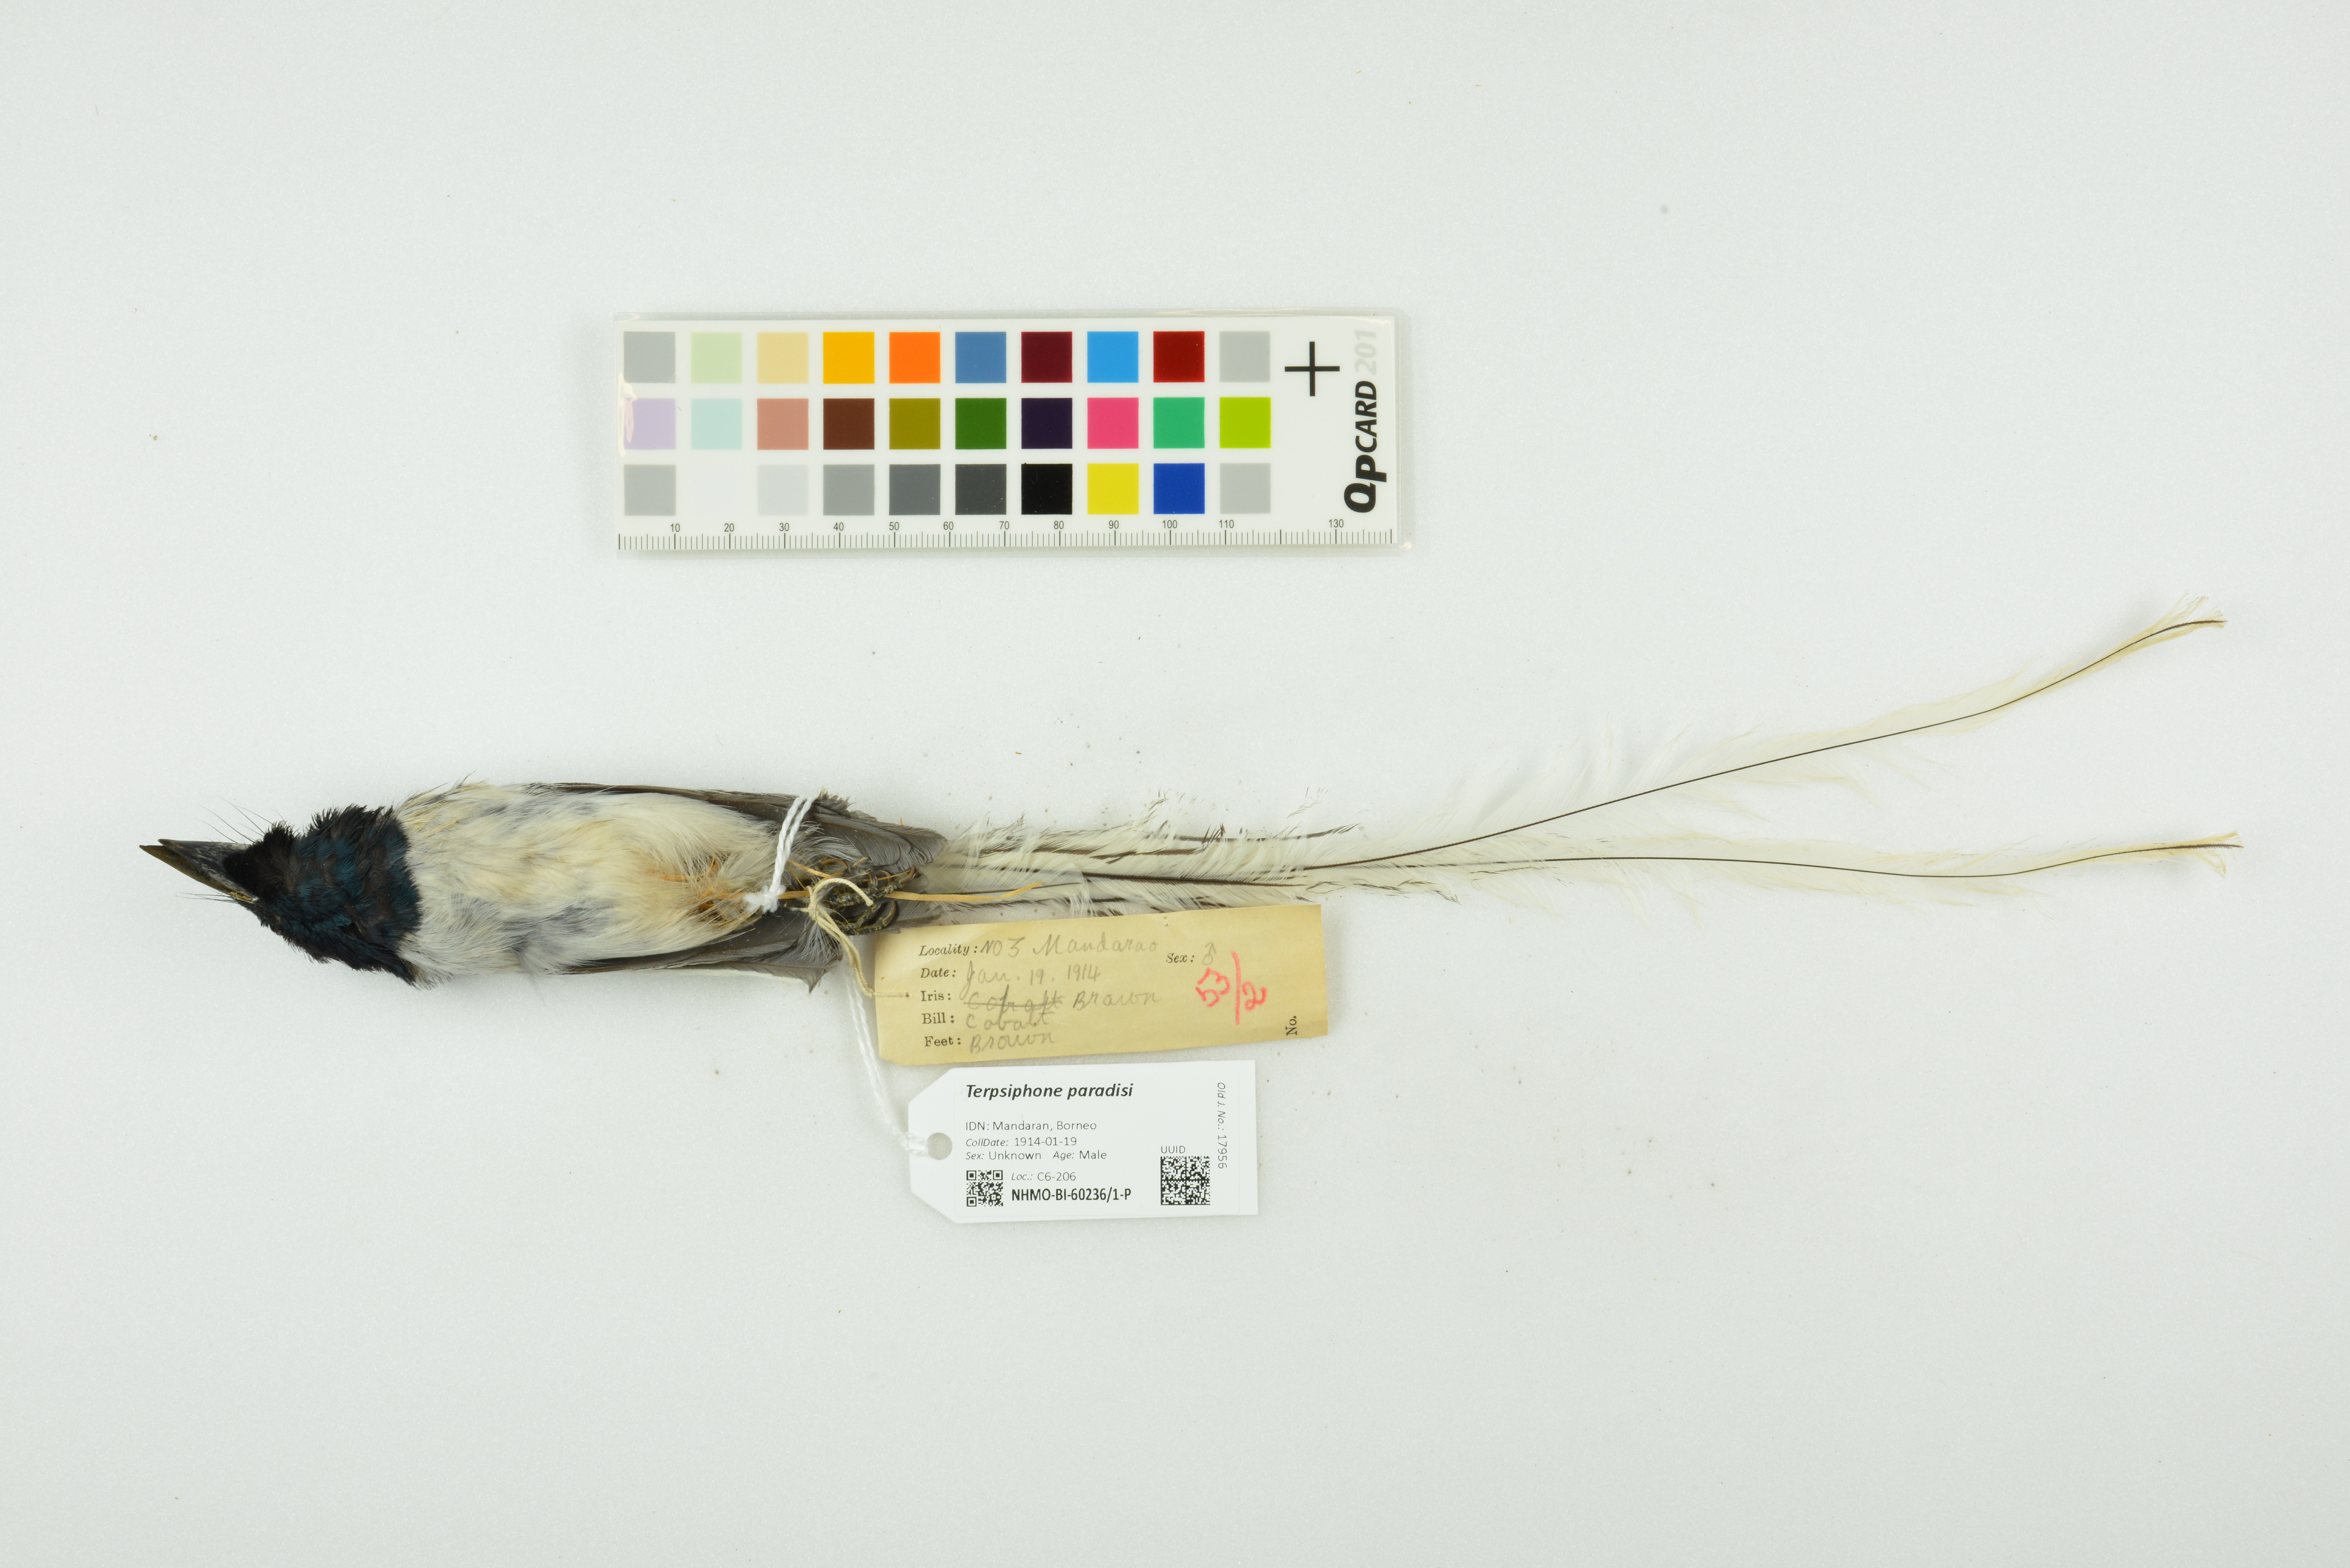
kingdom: Animalia
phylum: Chordata
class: Aves
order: Passeriformes
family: Monarchidae
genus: Terpsiphone
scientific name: Terpsiphone paradisi
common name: Indian paradise flycatcher
